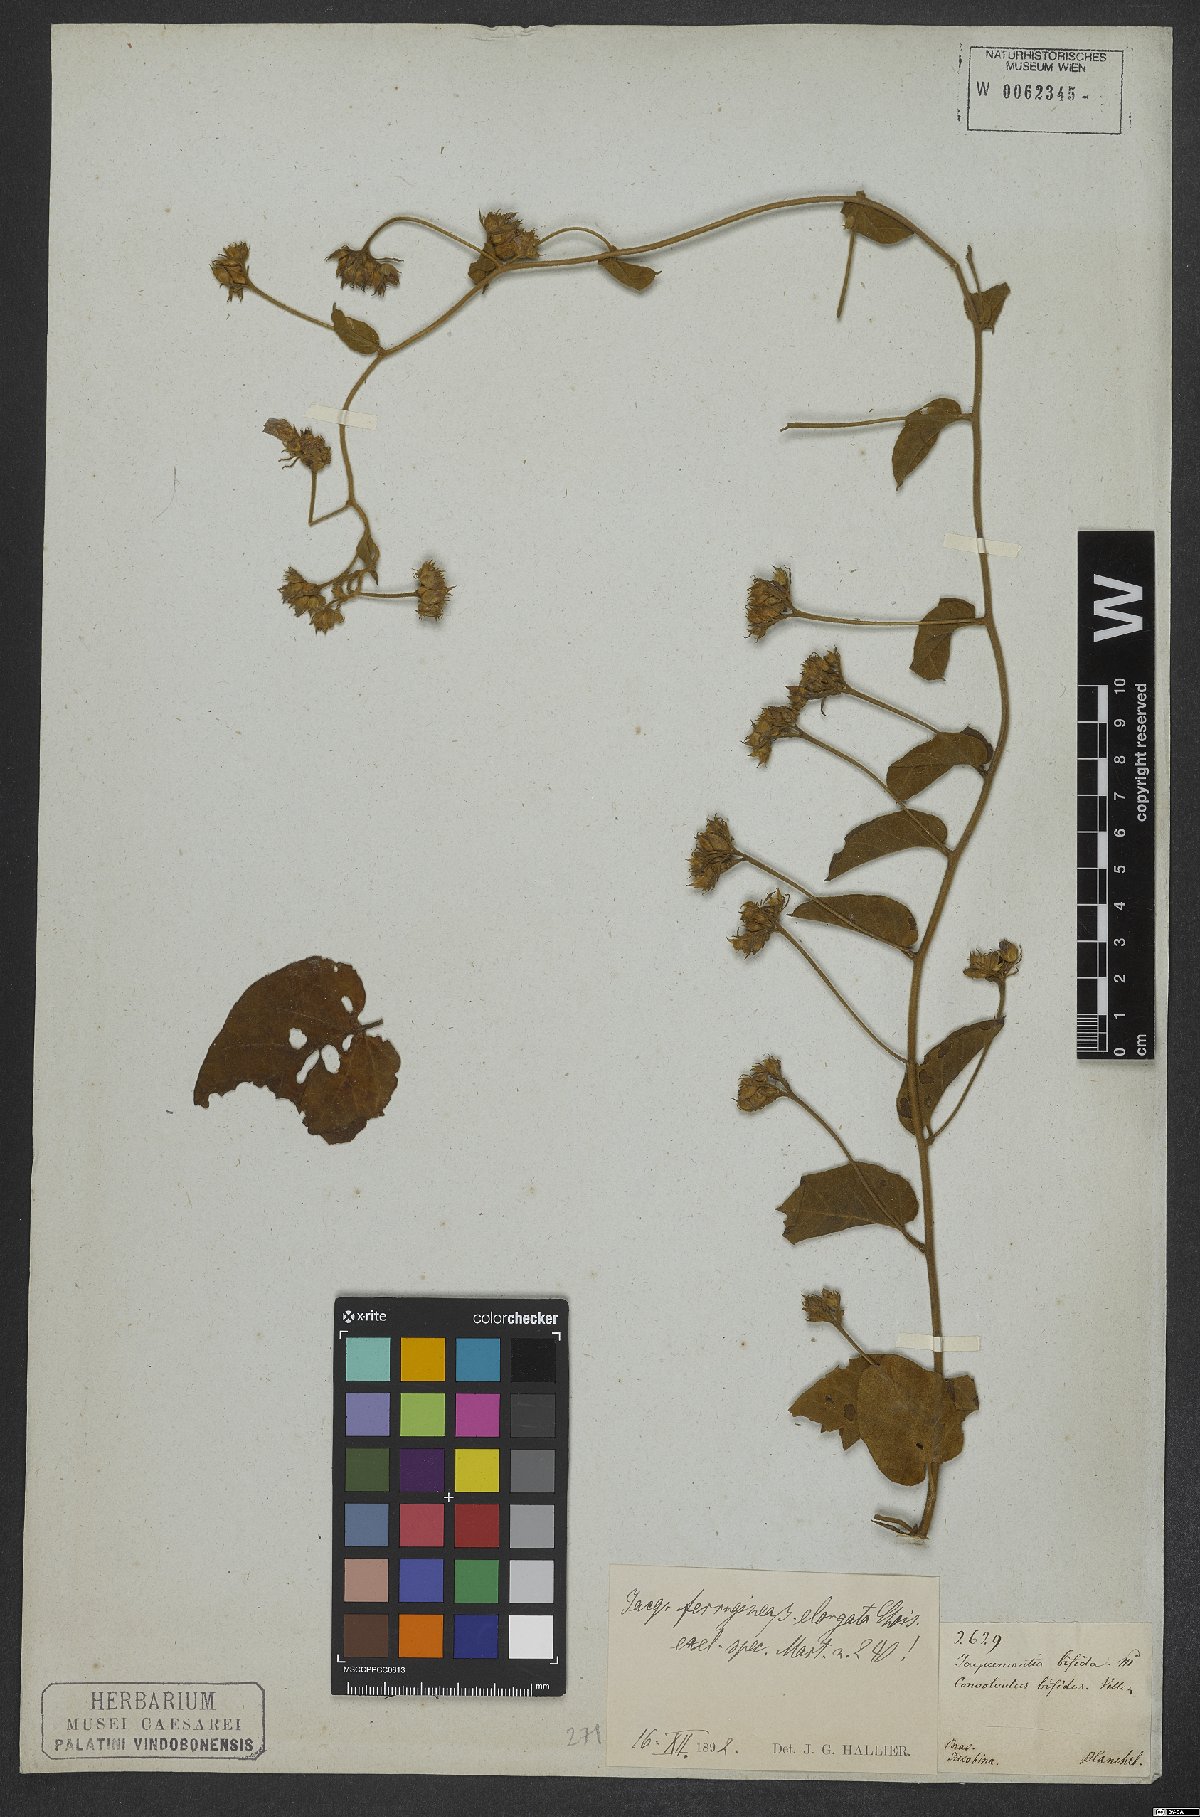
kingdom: Plantae
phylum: Tracheophyta
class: Magnoliopsida
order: Solanales
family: Convolvulaceae
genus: Jacquemontia
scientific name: Jacquemontia velloziana
